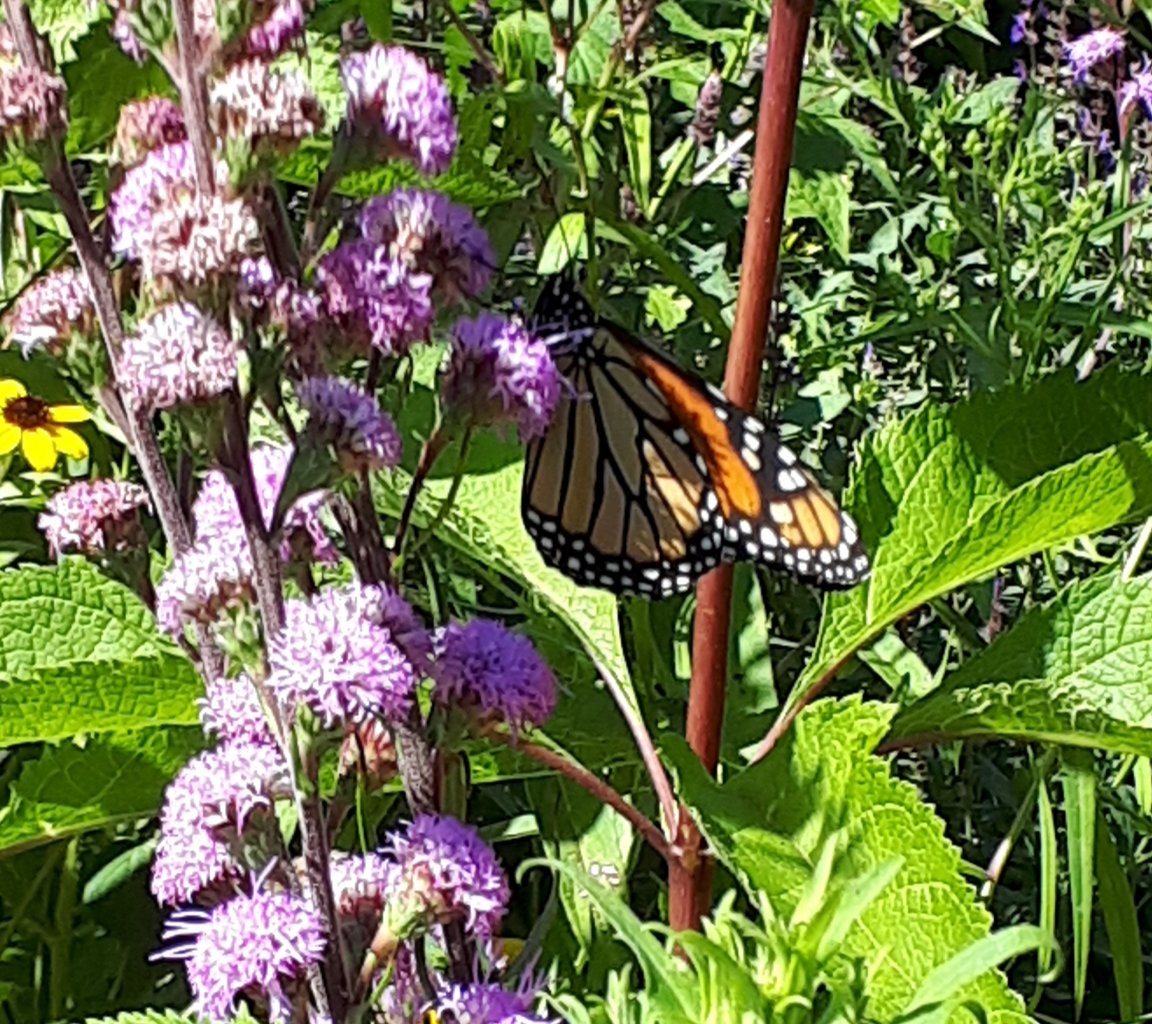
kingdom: Animalia
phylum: Arthropoda
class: Insecta
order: Lepidoptera
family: Nymphalidae
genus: Danaus
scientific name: Danaus plexippus
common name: Monarch
